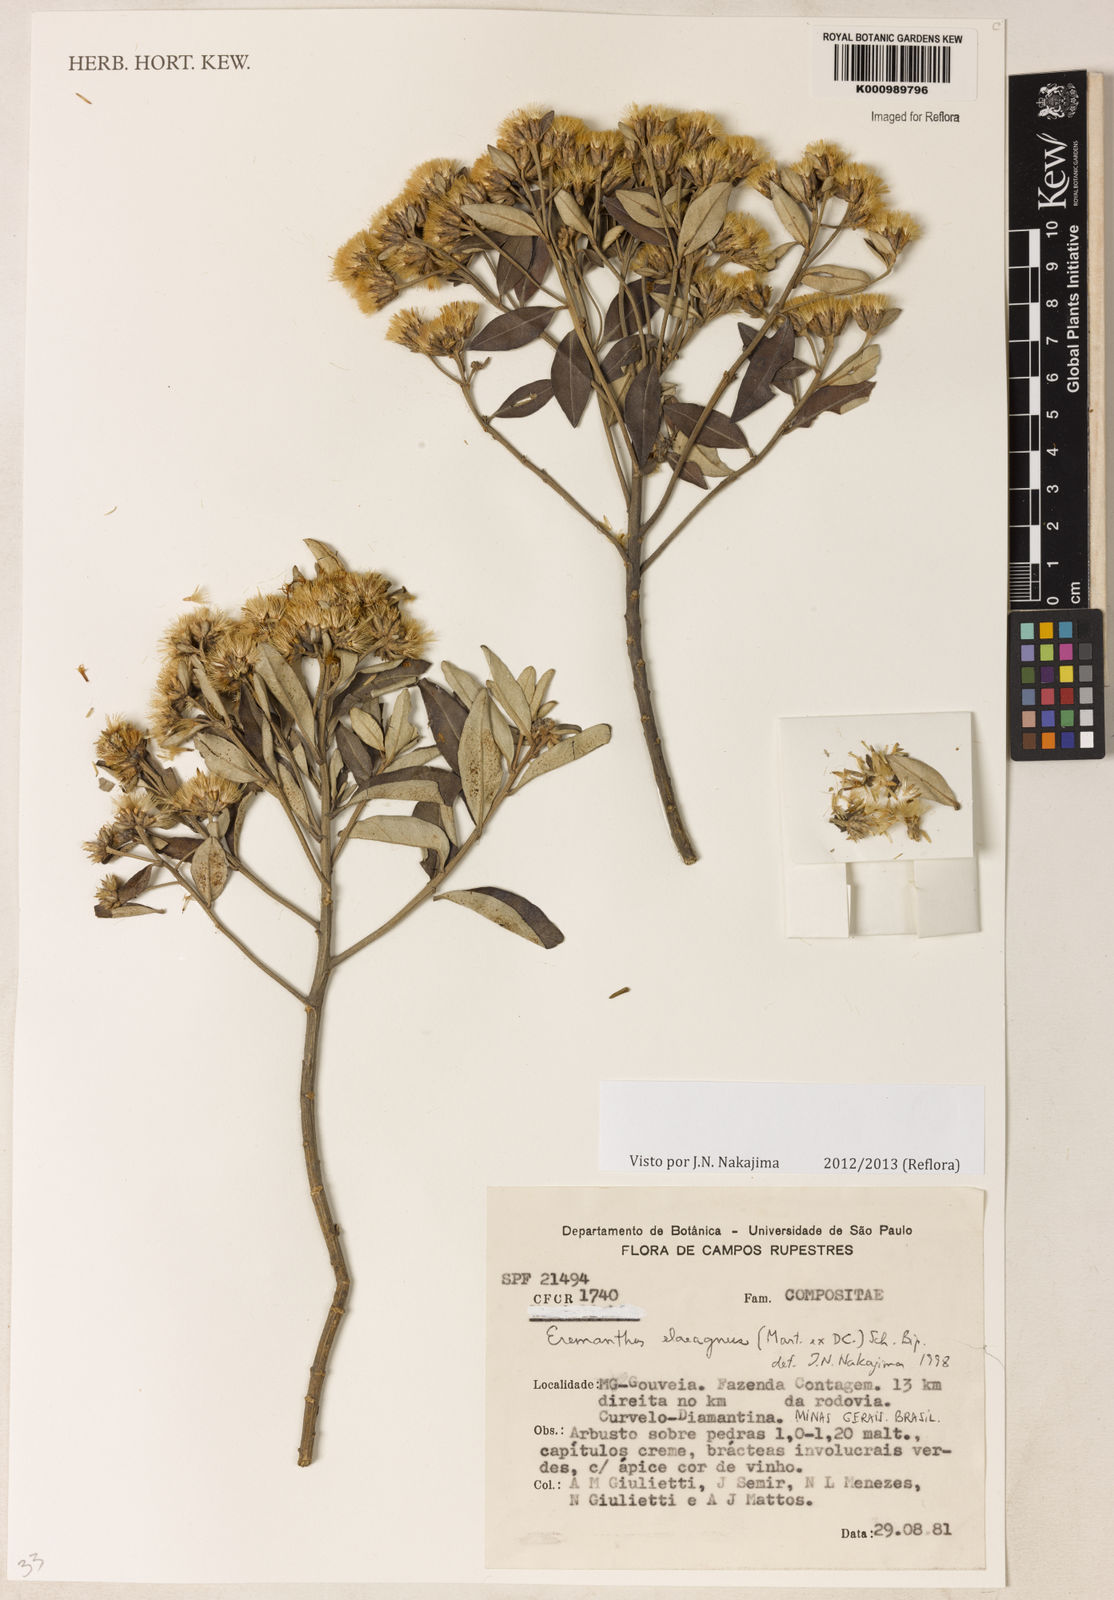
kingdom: Plantae
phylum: Tracheophyta
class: Magnoliopsida
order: Asterales
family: Asteraceae
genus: Eremanthus
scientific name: Eremanthus elaeagnus
